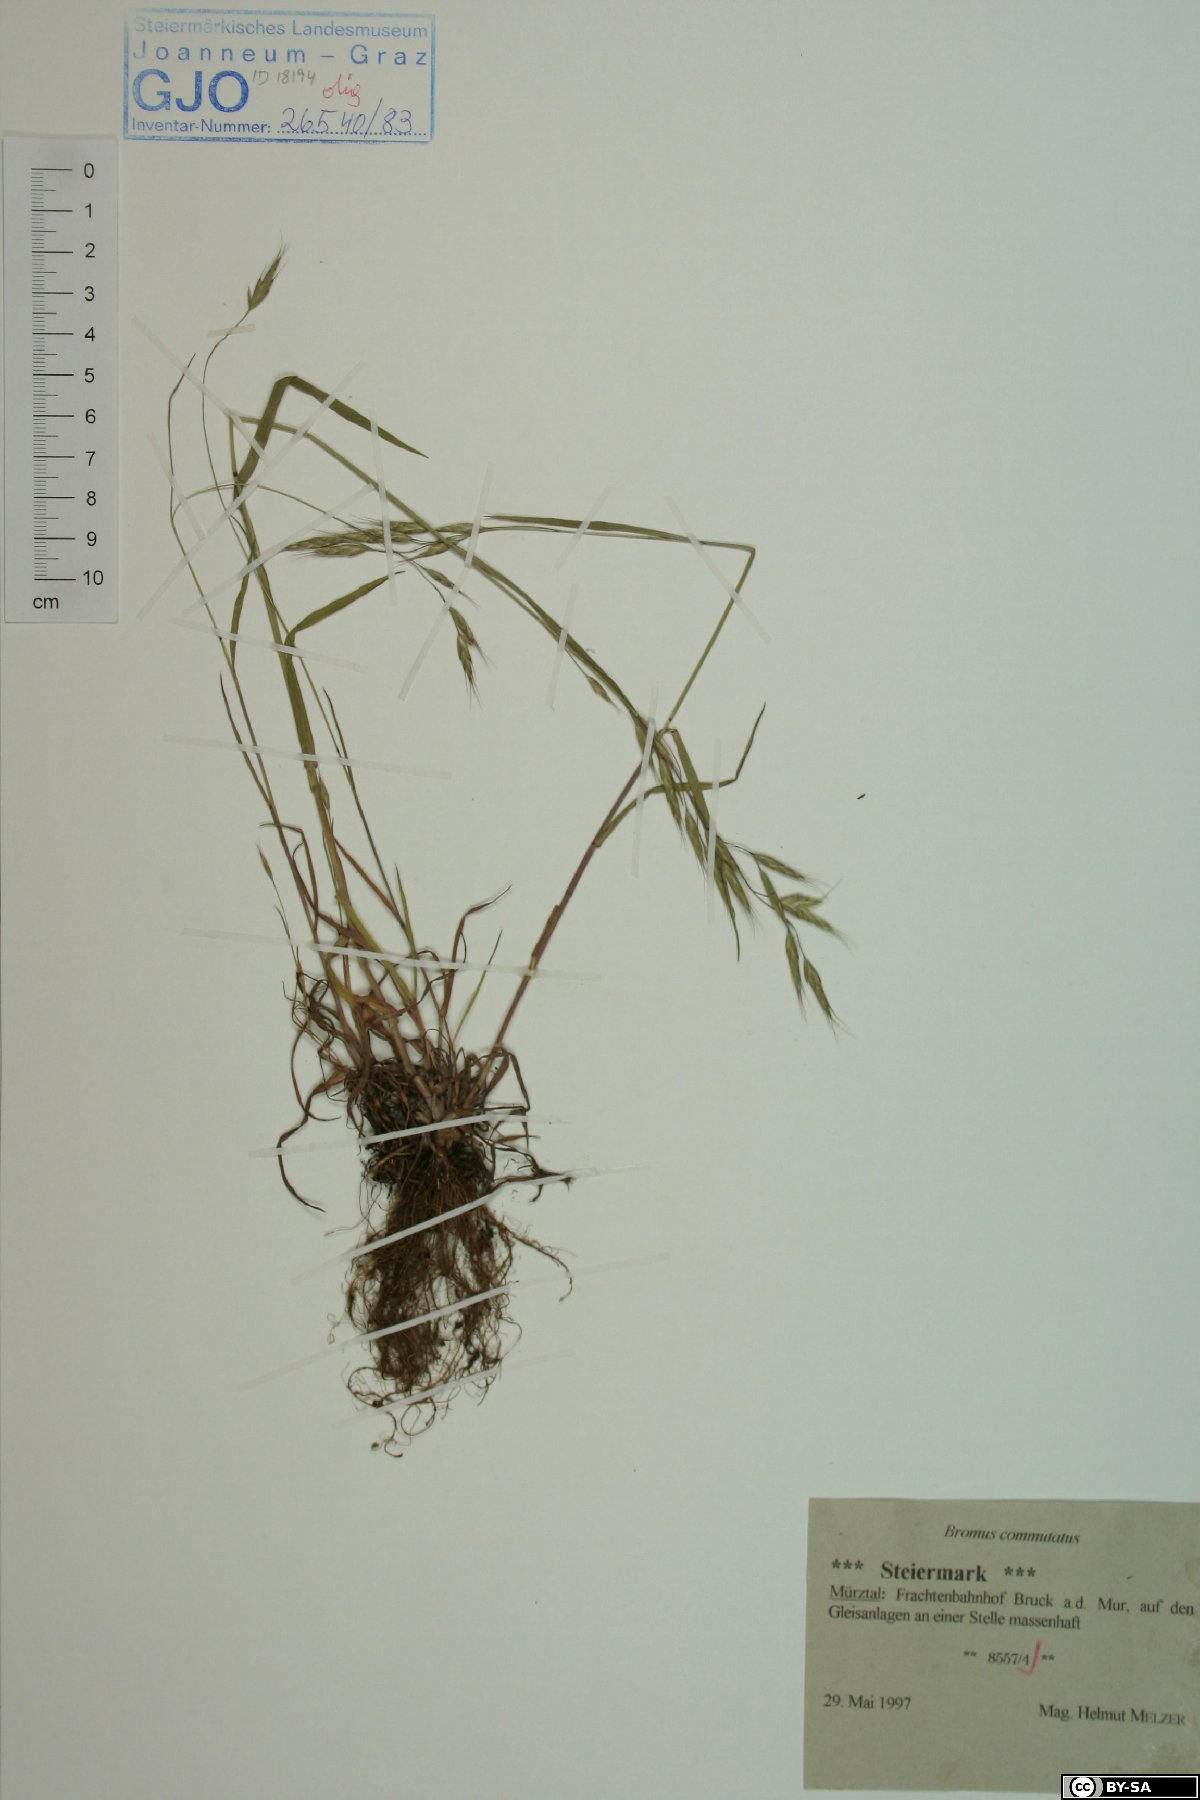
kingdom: Plantae
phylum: Tracheophyta
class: Liliopsida
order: Poales
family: Poaceae
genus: Bromus
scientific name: Bromus commutatus
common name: Meadow brome
